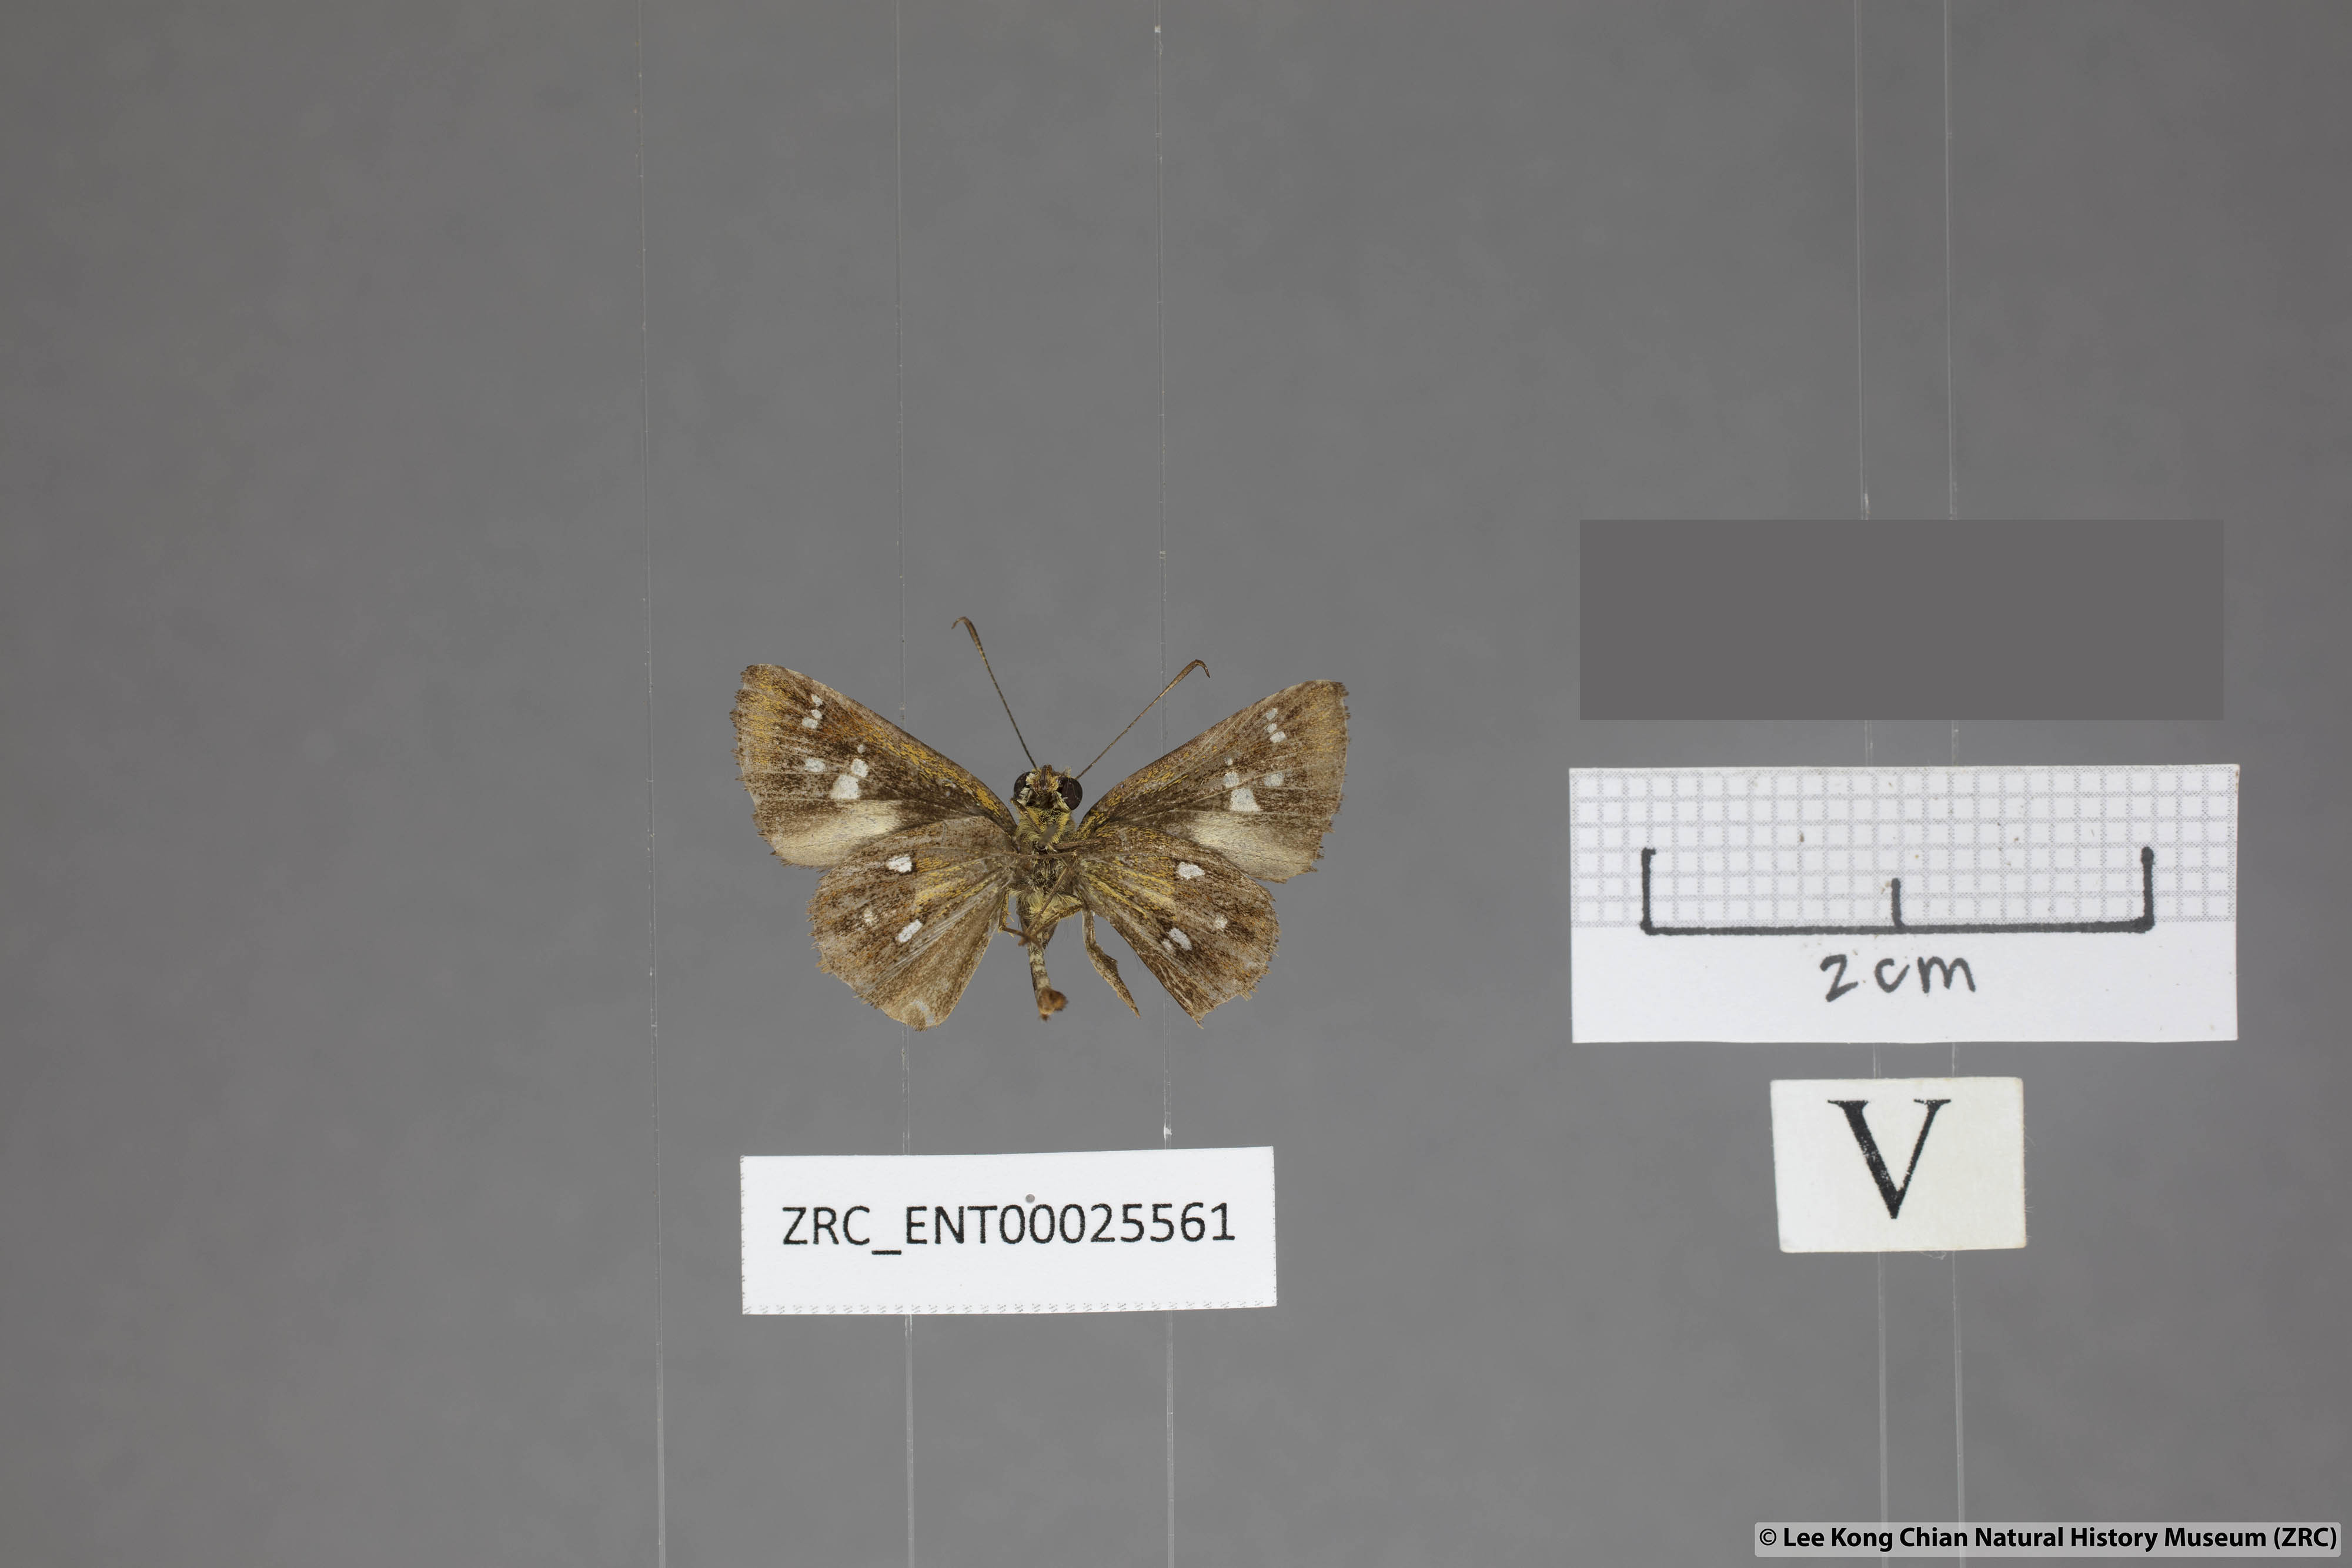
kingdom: Animalia
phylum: Arthropoda
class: Insecta
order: Lepidoptera
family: Hesperiidae
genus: Scobura
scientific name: Scobura woolletti
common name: Brown forest bob
